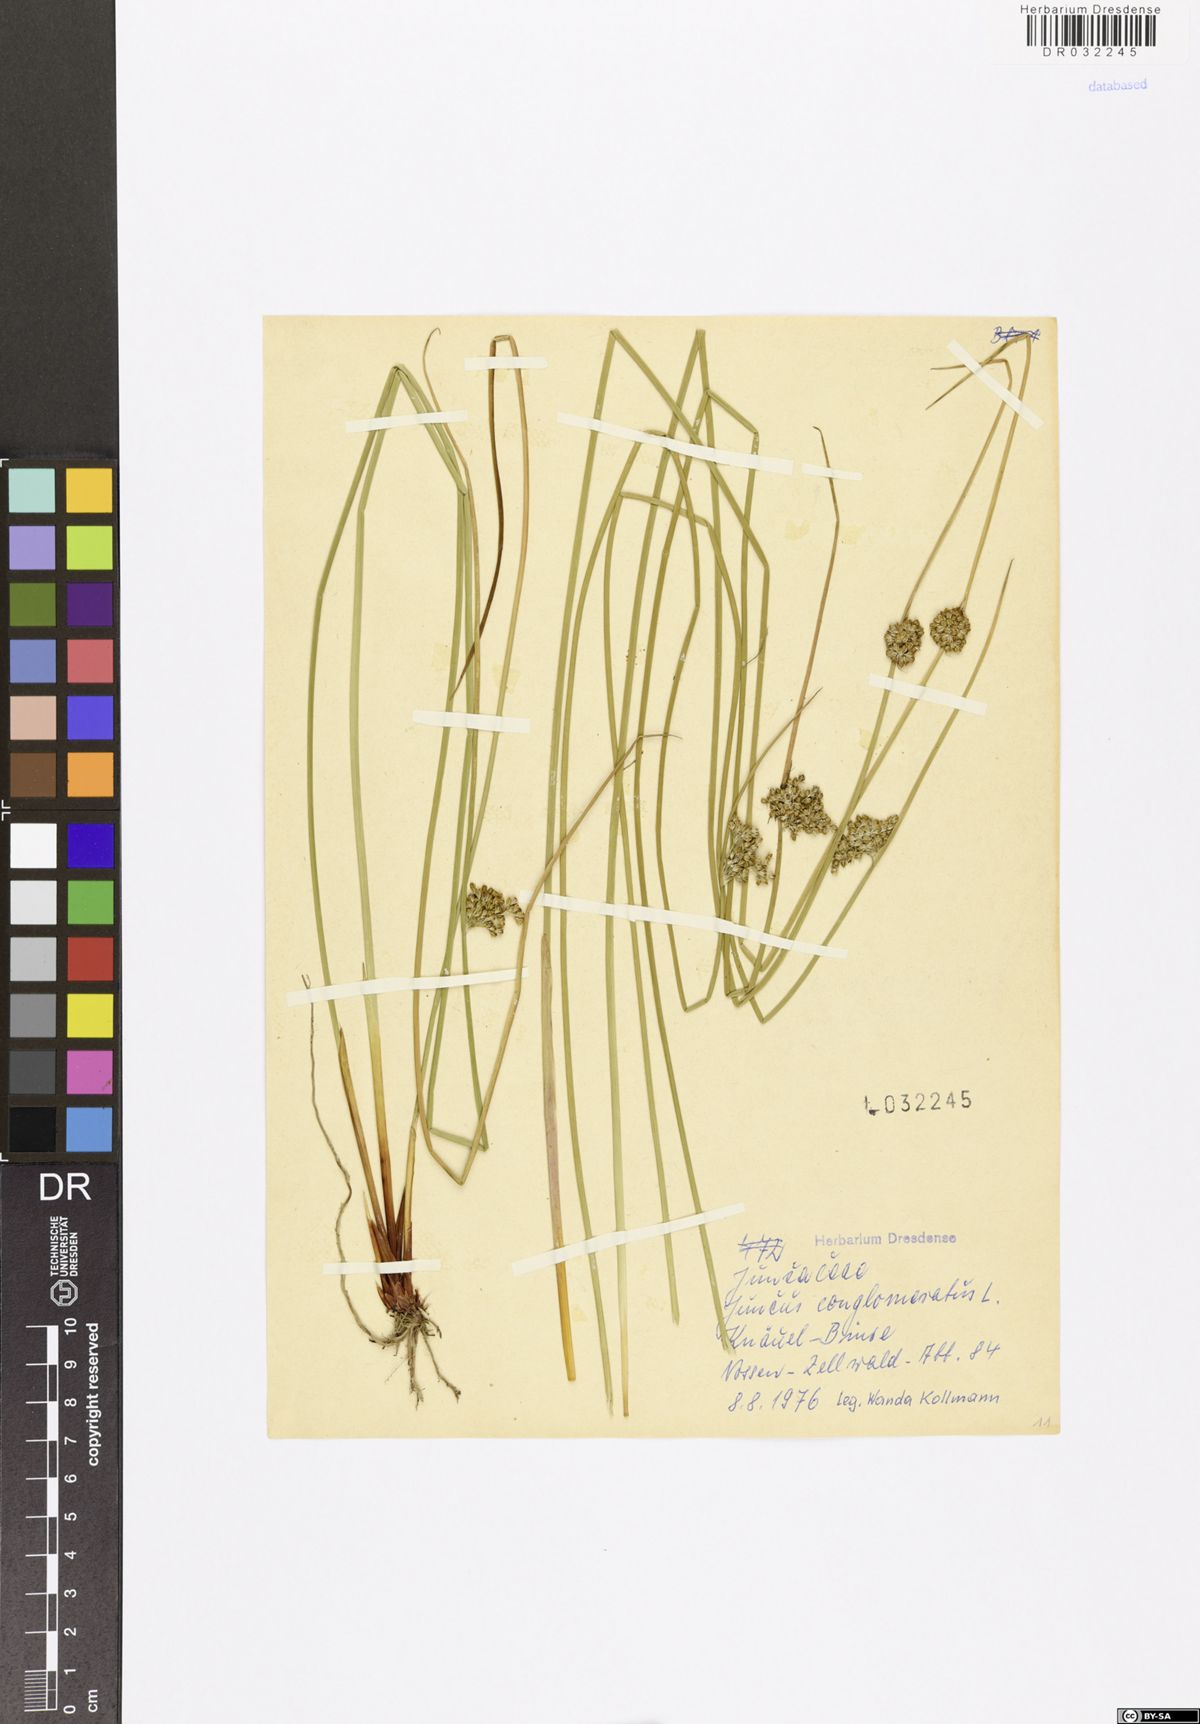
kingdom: Plantae
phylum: Tracheophyta
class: Liliopsida
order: Poales
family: Juncaceae
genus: Juncus
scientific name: Juncus conglomeratus
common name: Compact rush
